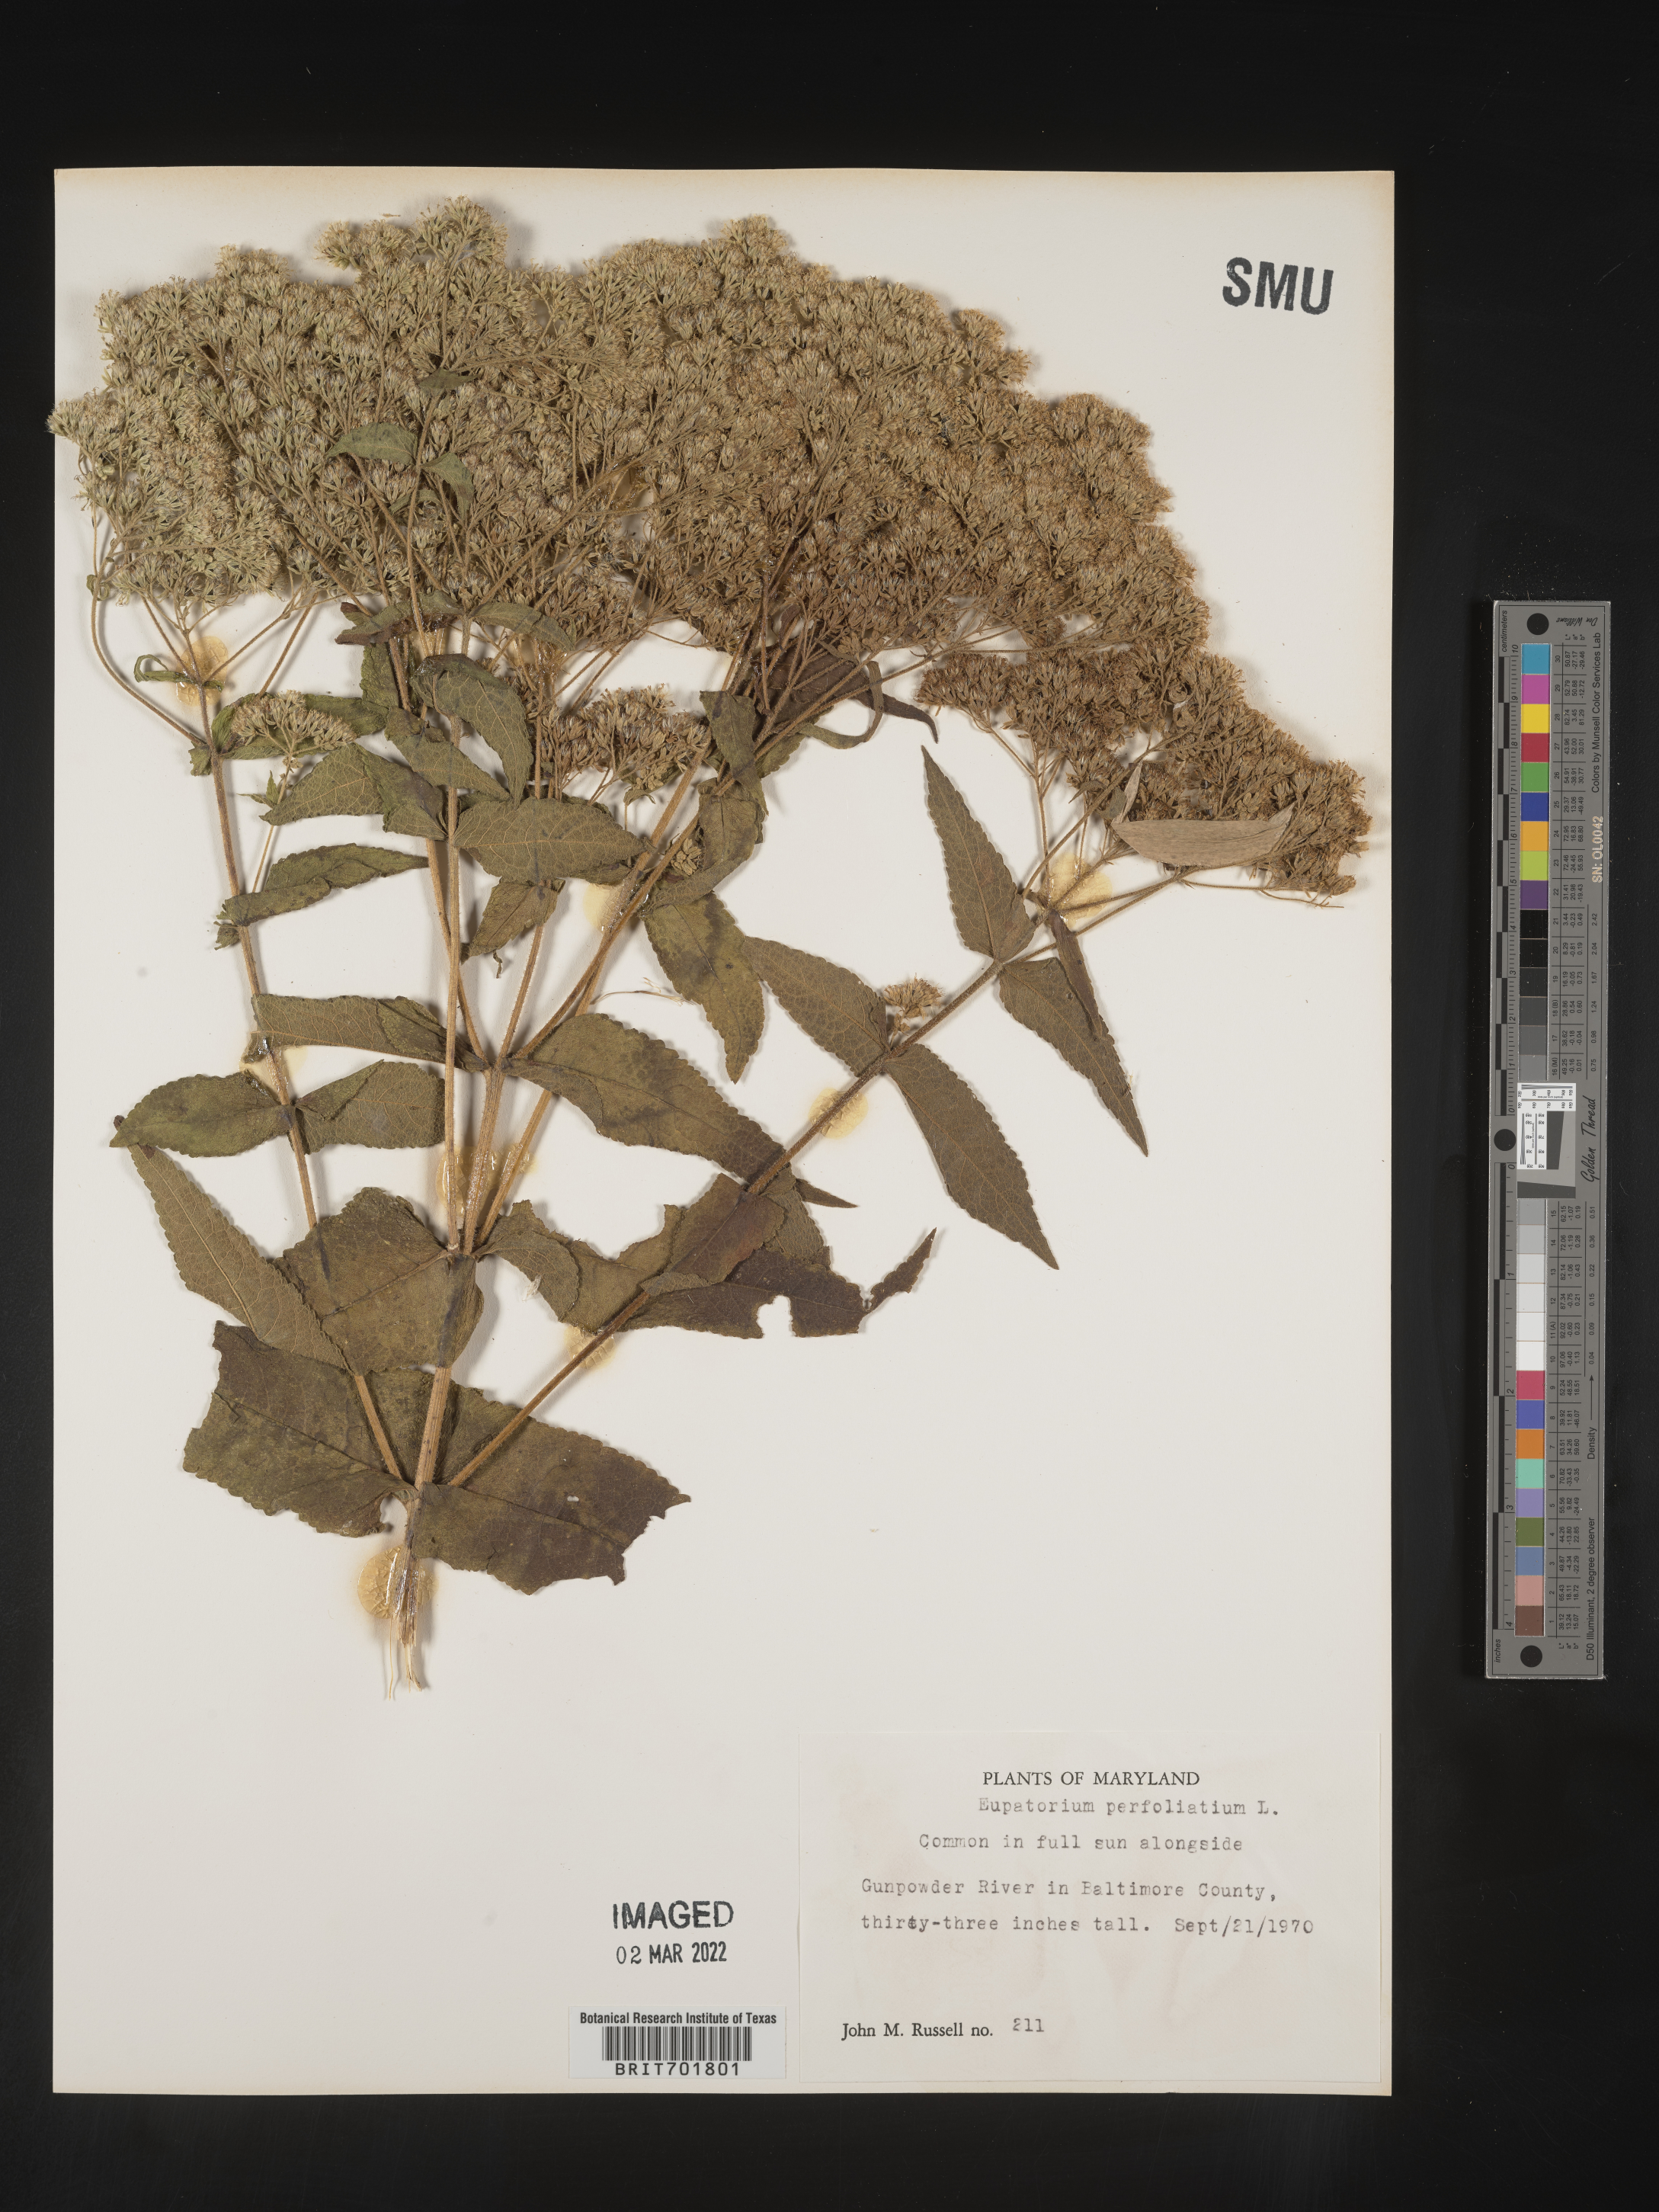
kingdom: Plantae
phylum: Tracheophyta
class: Magnoliopsida
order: Asterales
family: Asteraceae
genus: Eupatorium
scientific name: Eupatorium perfoliatum
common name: Boneset
